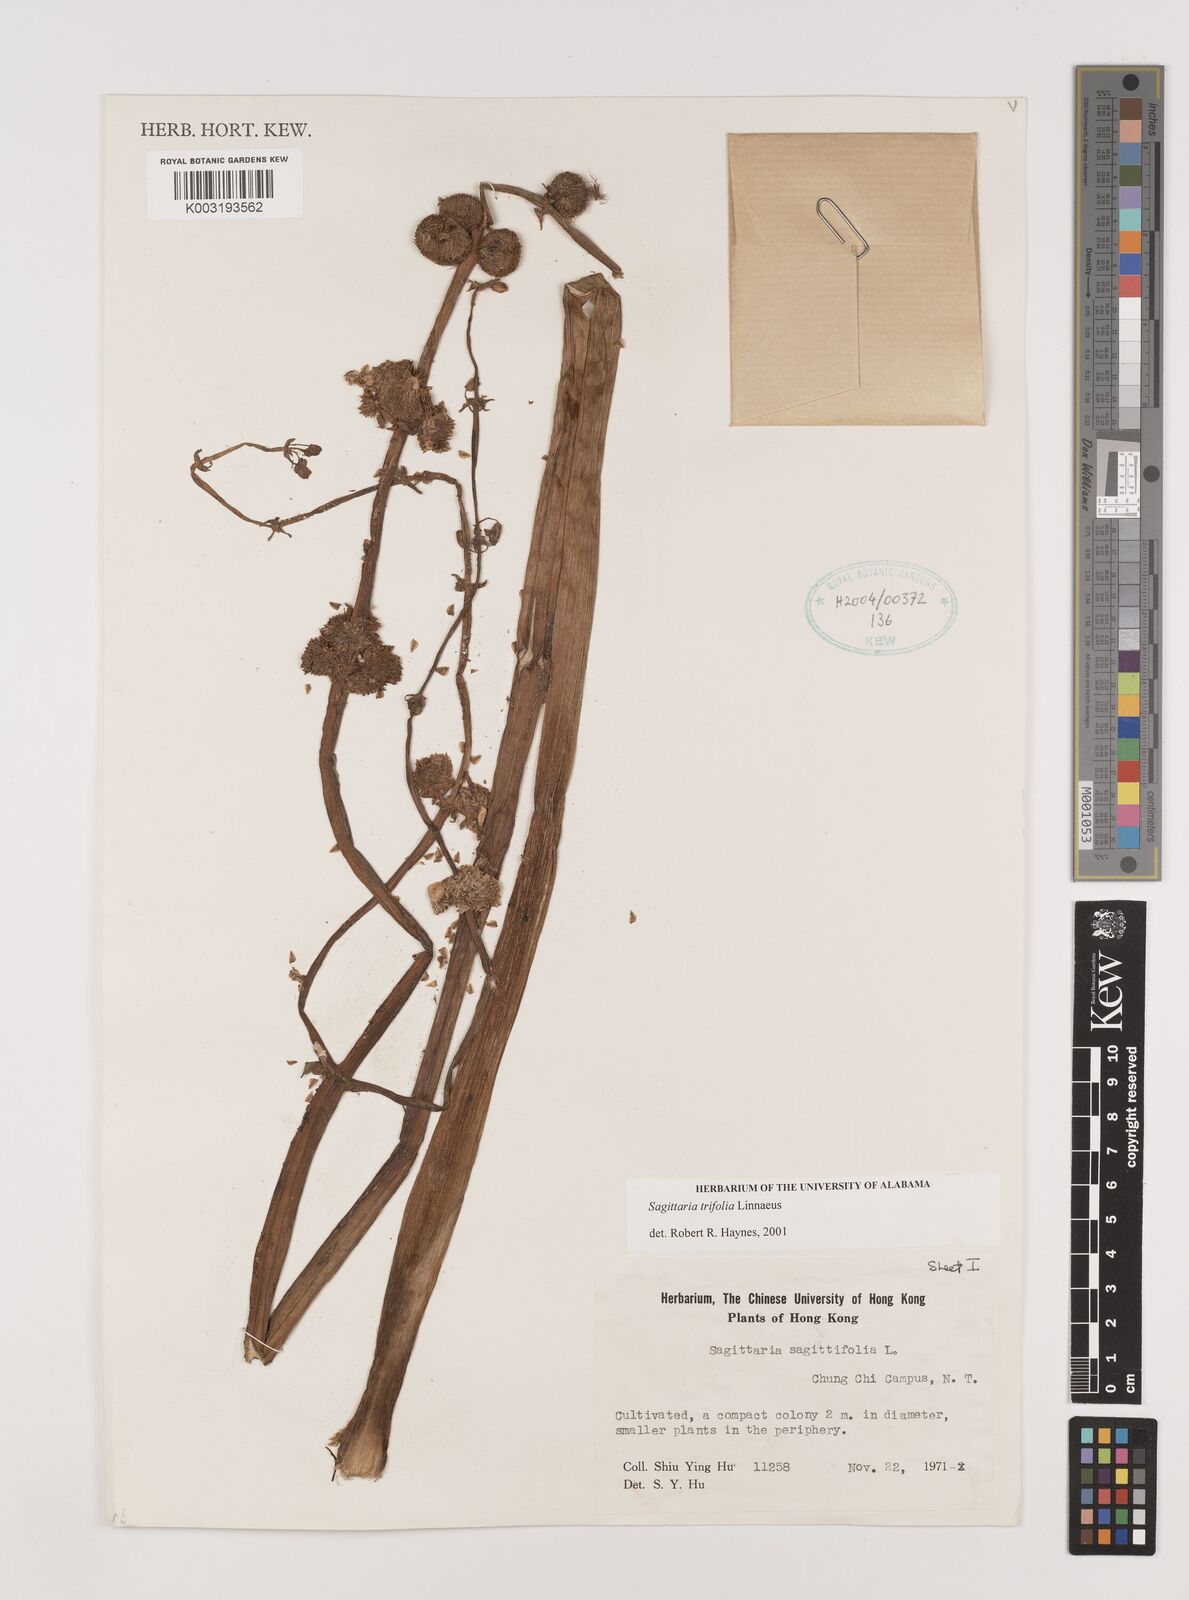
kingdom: Plantae
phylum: Tracheophyta
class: Liliopsida
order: Alismatales
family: Alismataceae
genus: Sagittaria
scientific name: Sagittaria trifolia
